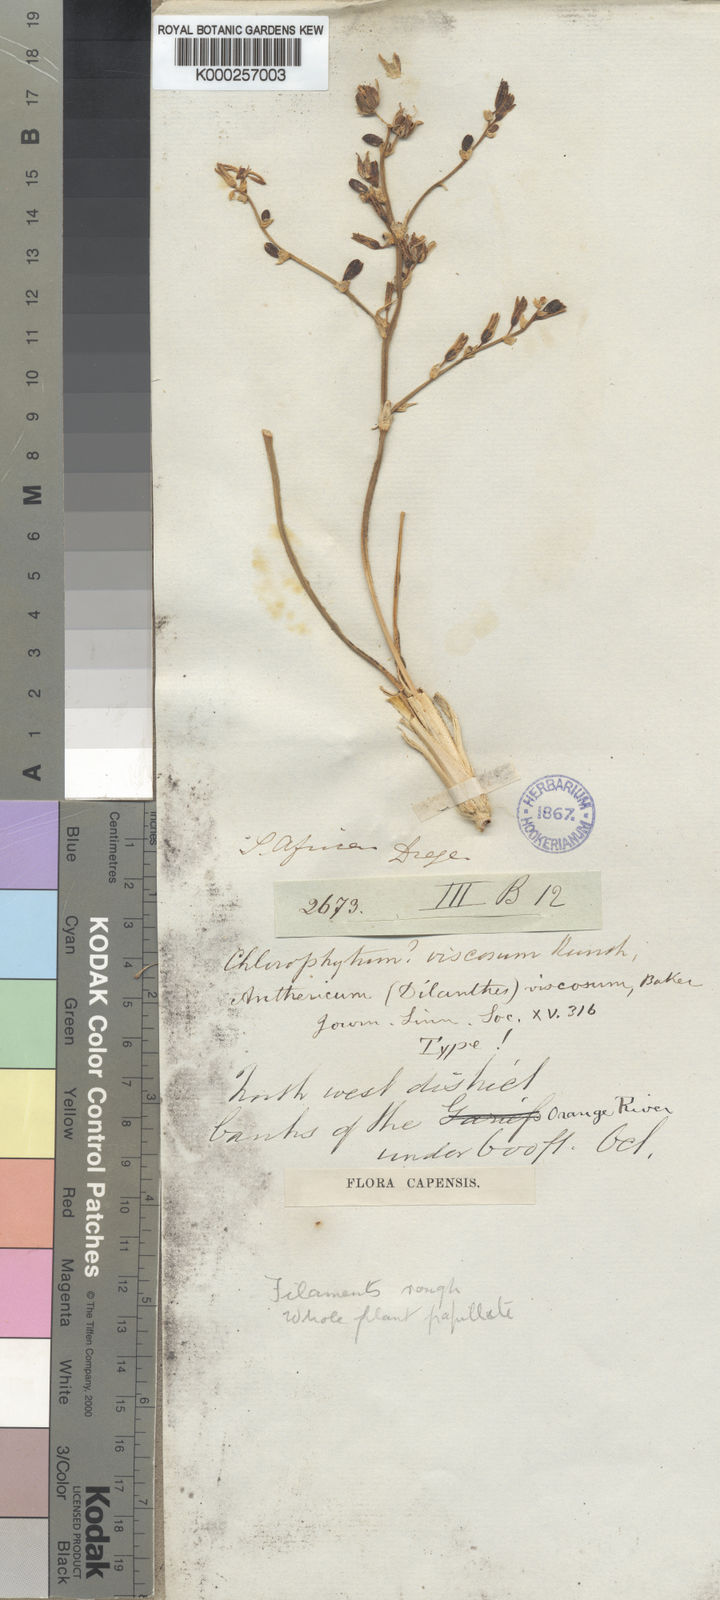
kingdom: Plantae
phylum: Tracheophyta
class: Liliopsida
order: Asparagales
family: Asparagaceae
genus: Chlorophytum
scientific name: Chlorophytum viscosum
